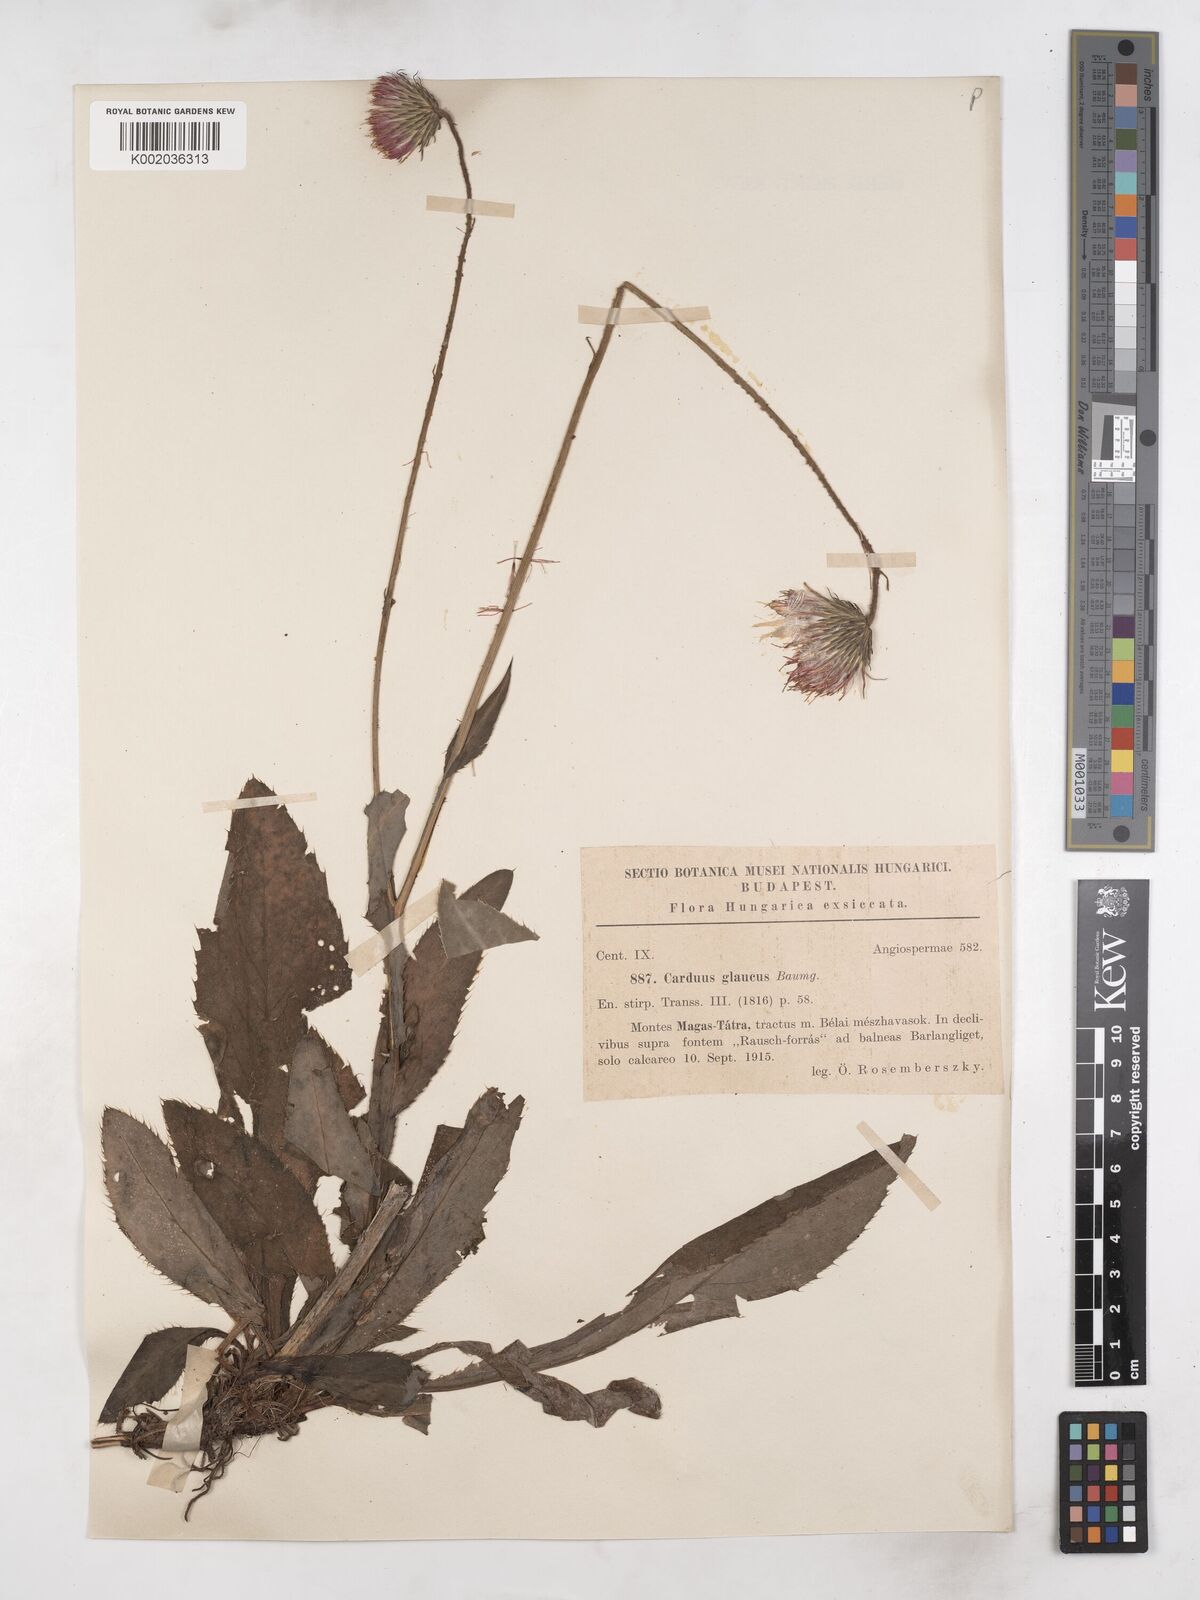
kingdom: Plantae
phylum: Tracheophyta
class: Magnoliopsida
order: Asterales
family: Asteraceae
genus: Carduus
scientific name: Carduus defloratus
